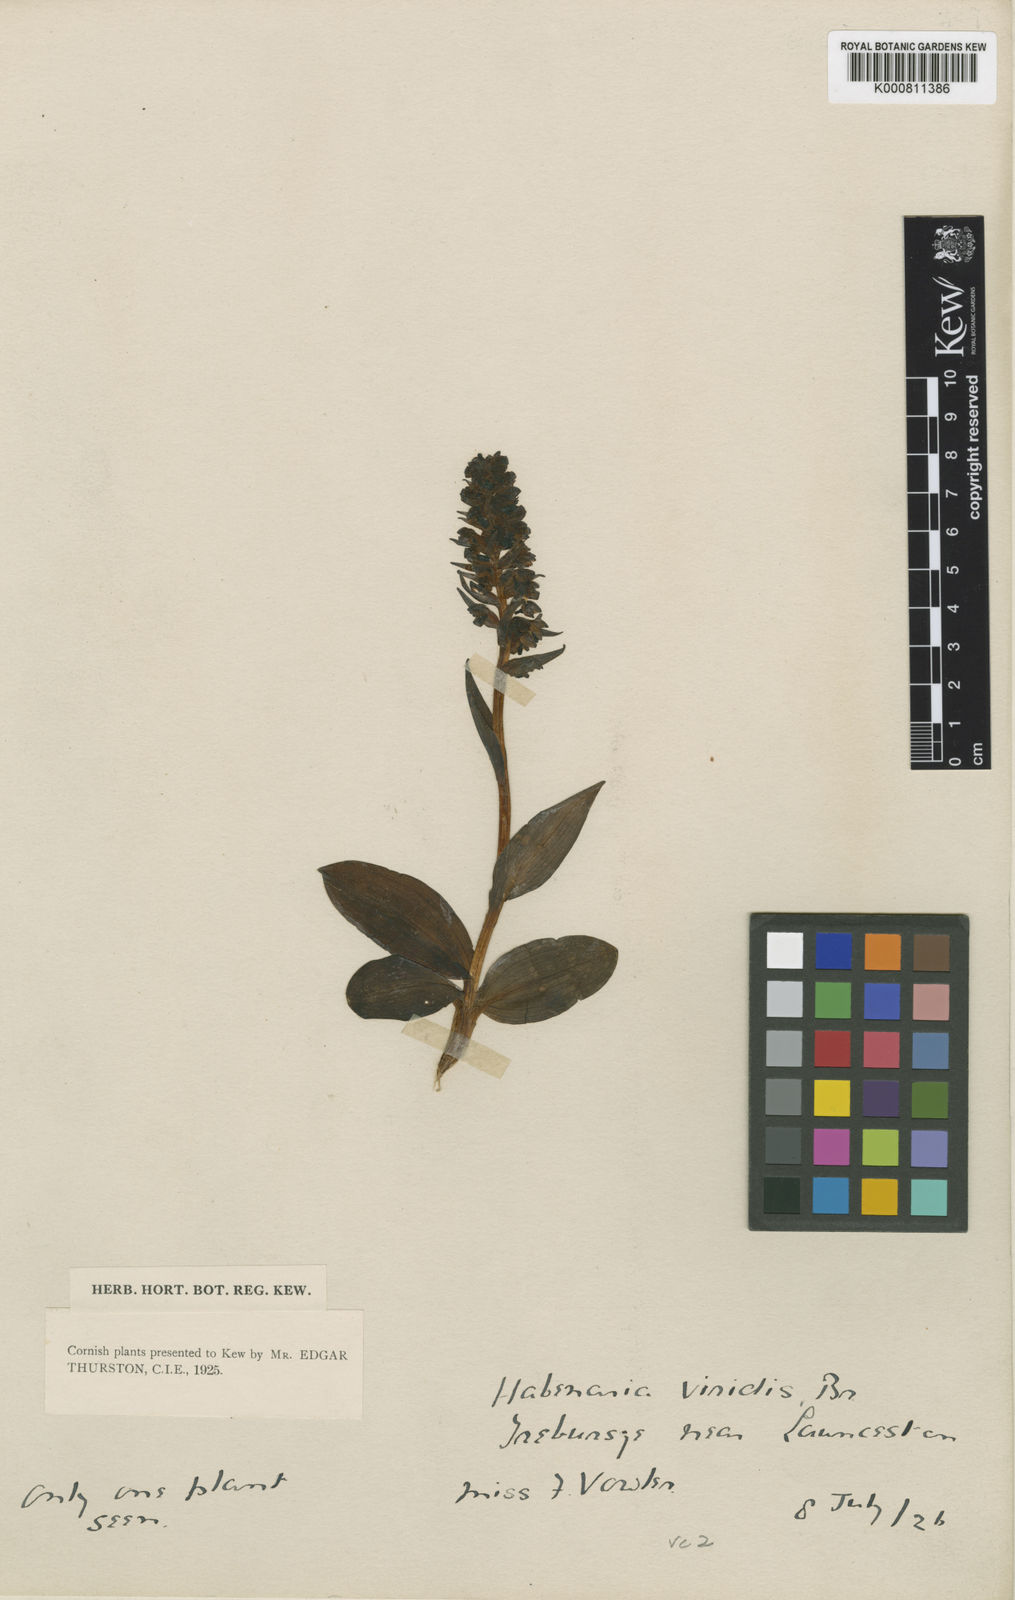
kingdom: Plantae
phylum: Tracheophyta
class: Liliopsida
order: Asparagales
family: Orchidaceae
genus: Dactylorhiza
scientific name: Dactylorhiza viridis
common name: Longbract frog orchid
